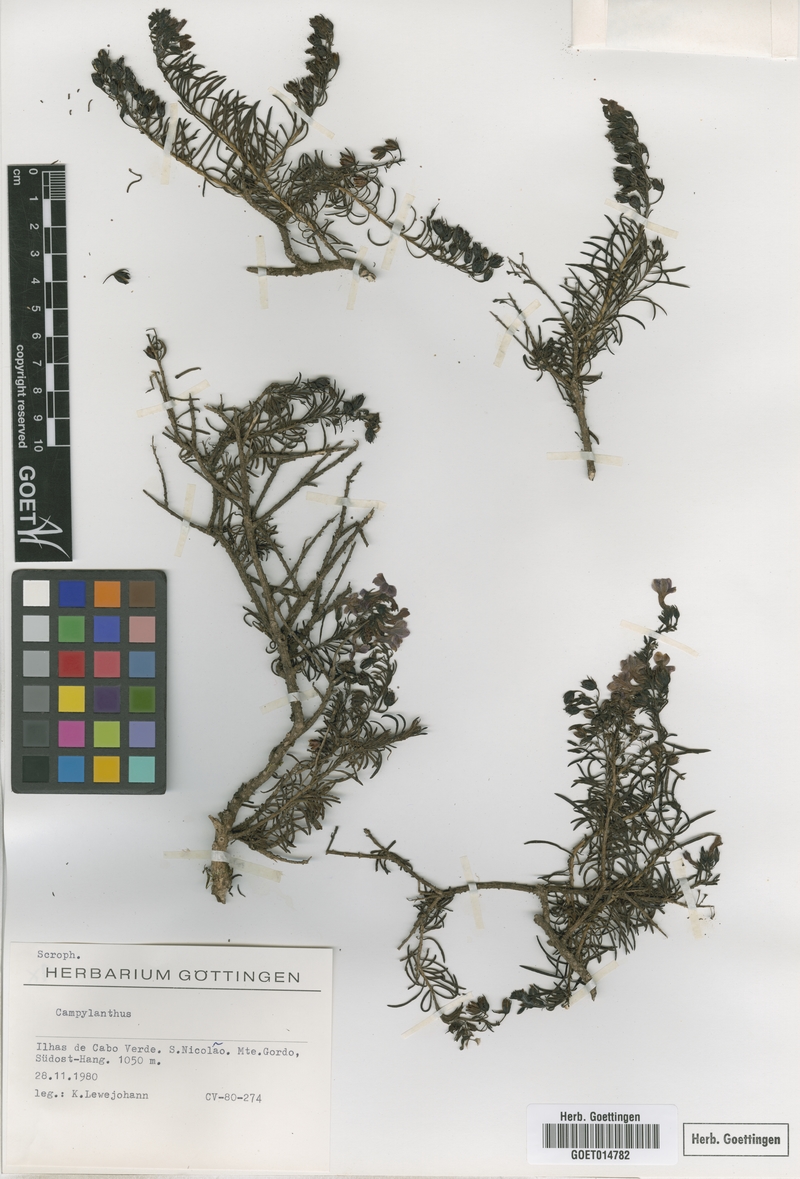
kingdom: Plantae
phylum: Tracheophyta
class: Magnoliopsida
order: Lamiales
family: Plantaginaceae
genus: Campylanthus
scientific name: Campylanthus
